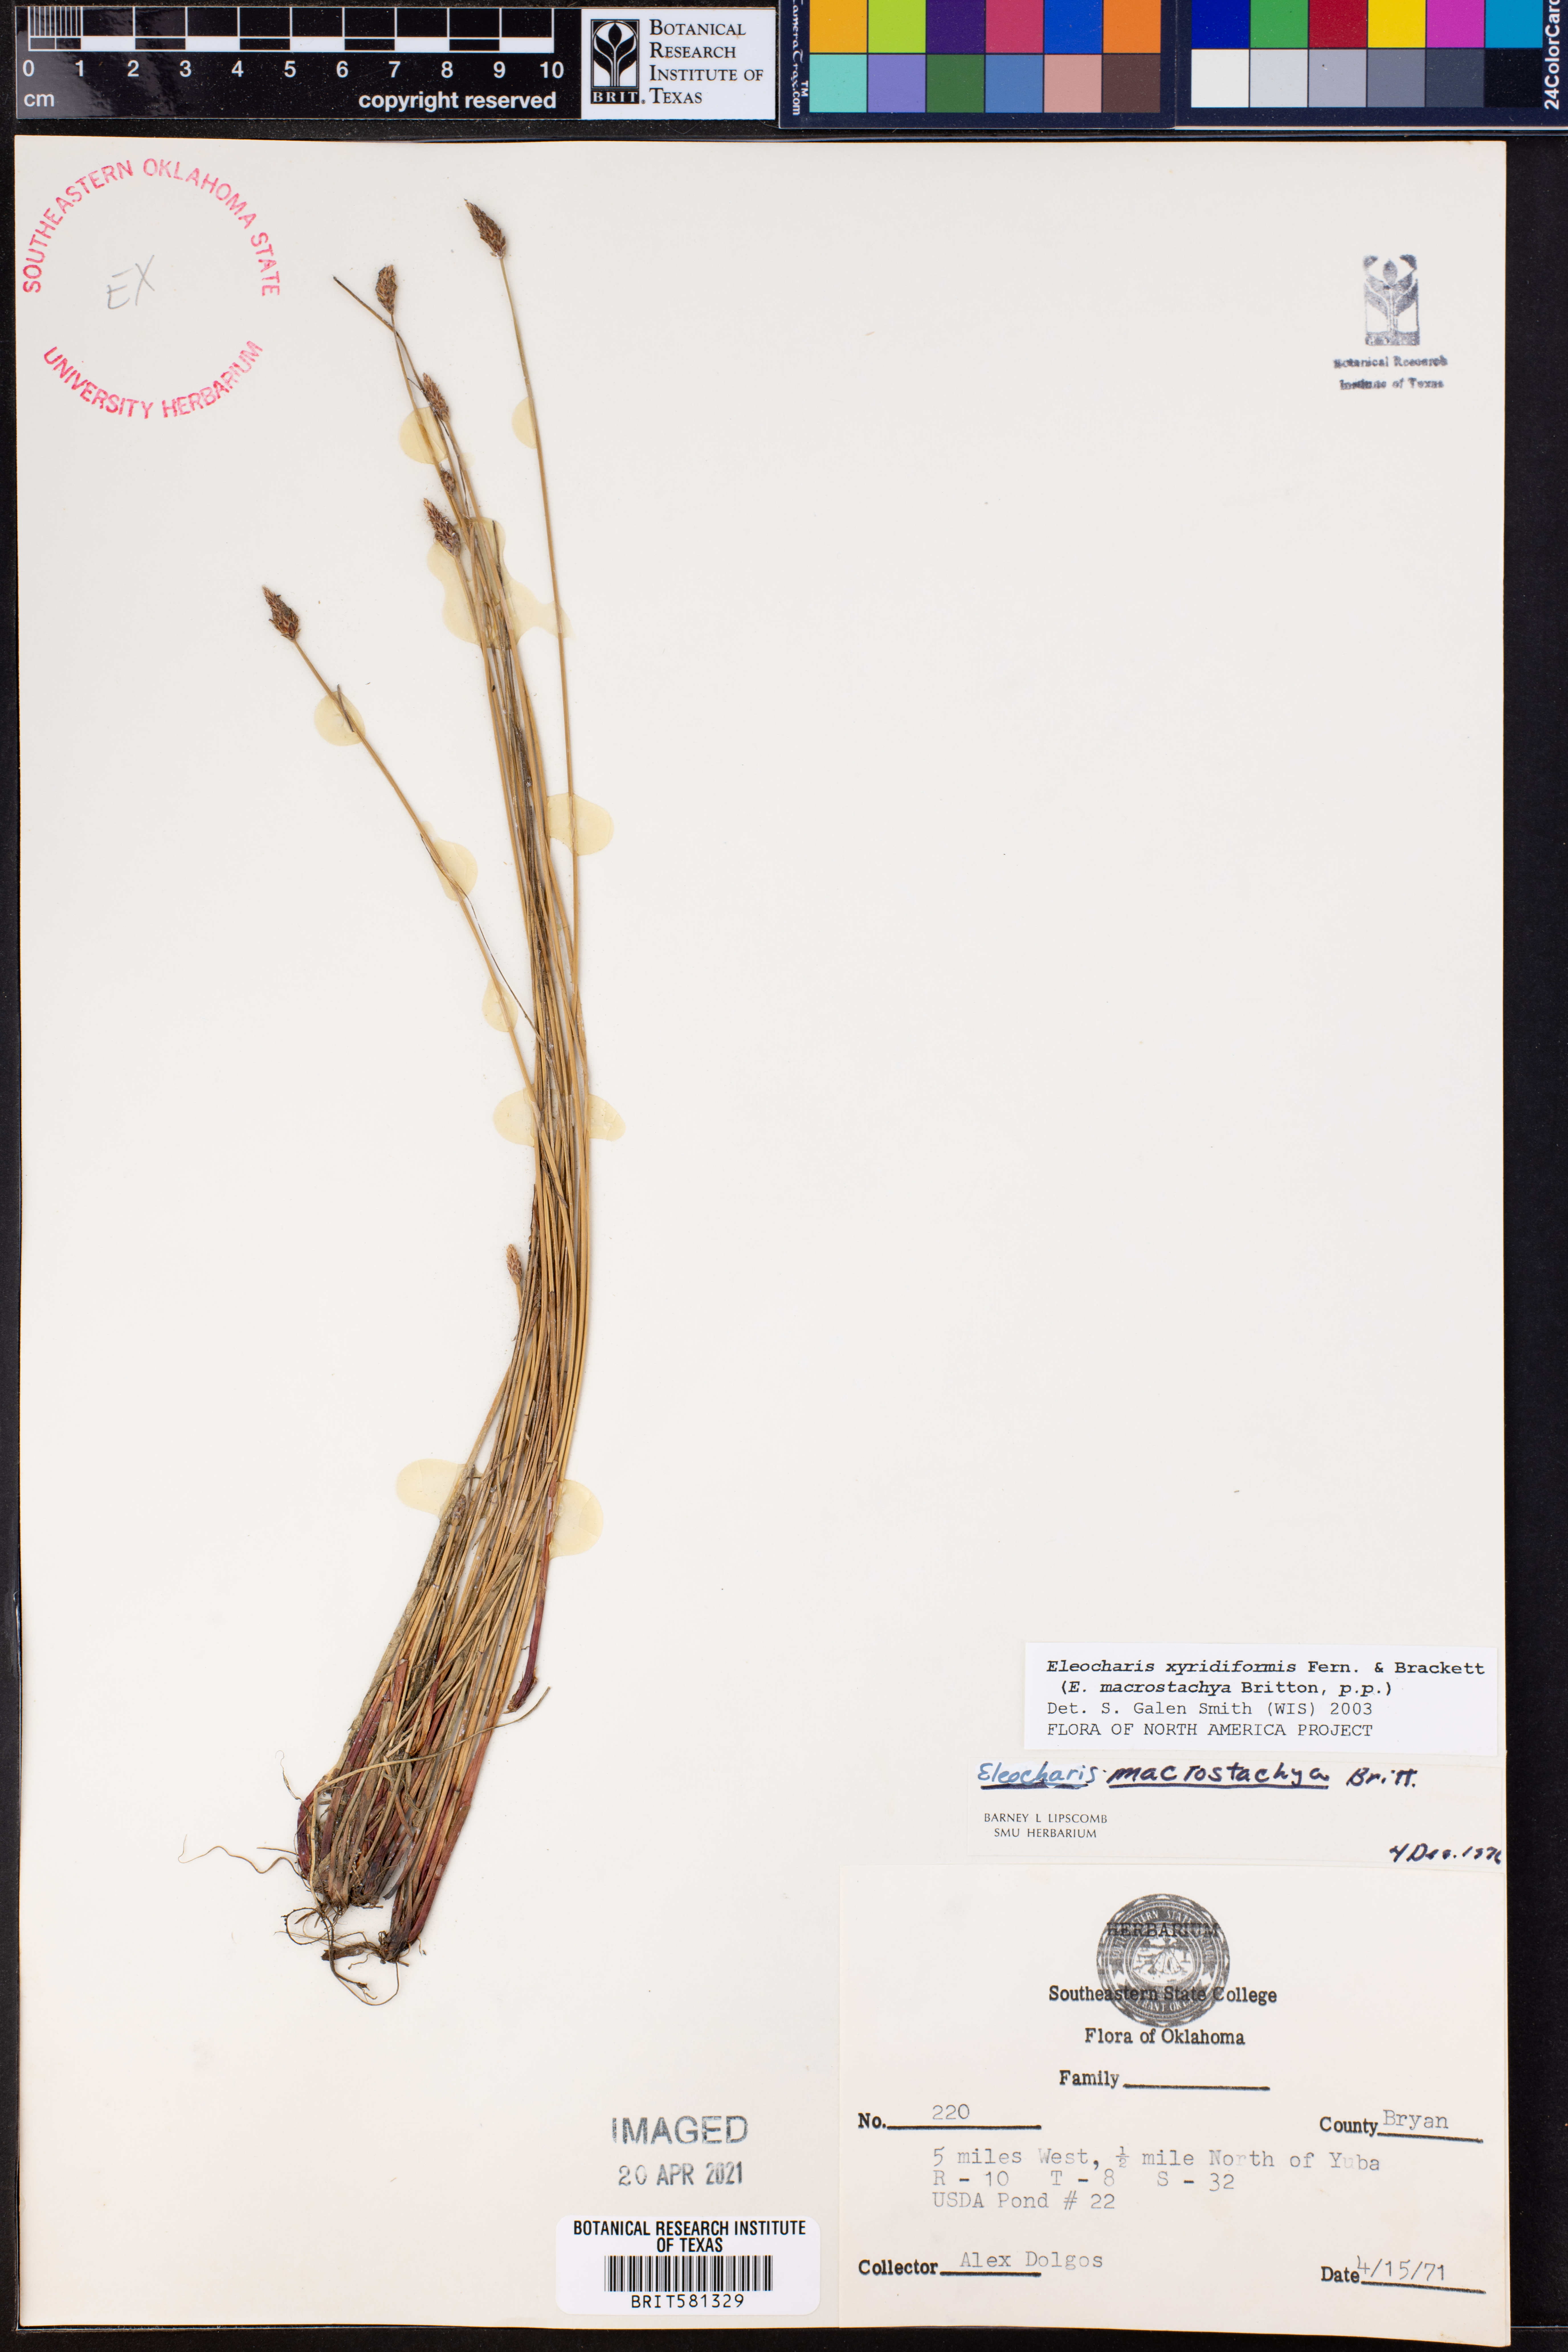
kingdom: Plantae
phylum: Tracheophyta
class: Liliopsida
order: Poales
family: Cyperaceae
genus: Eleocharis
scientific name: Eleocharis macrostachya
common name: Pale spikerush
